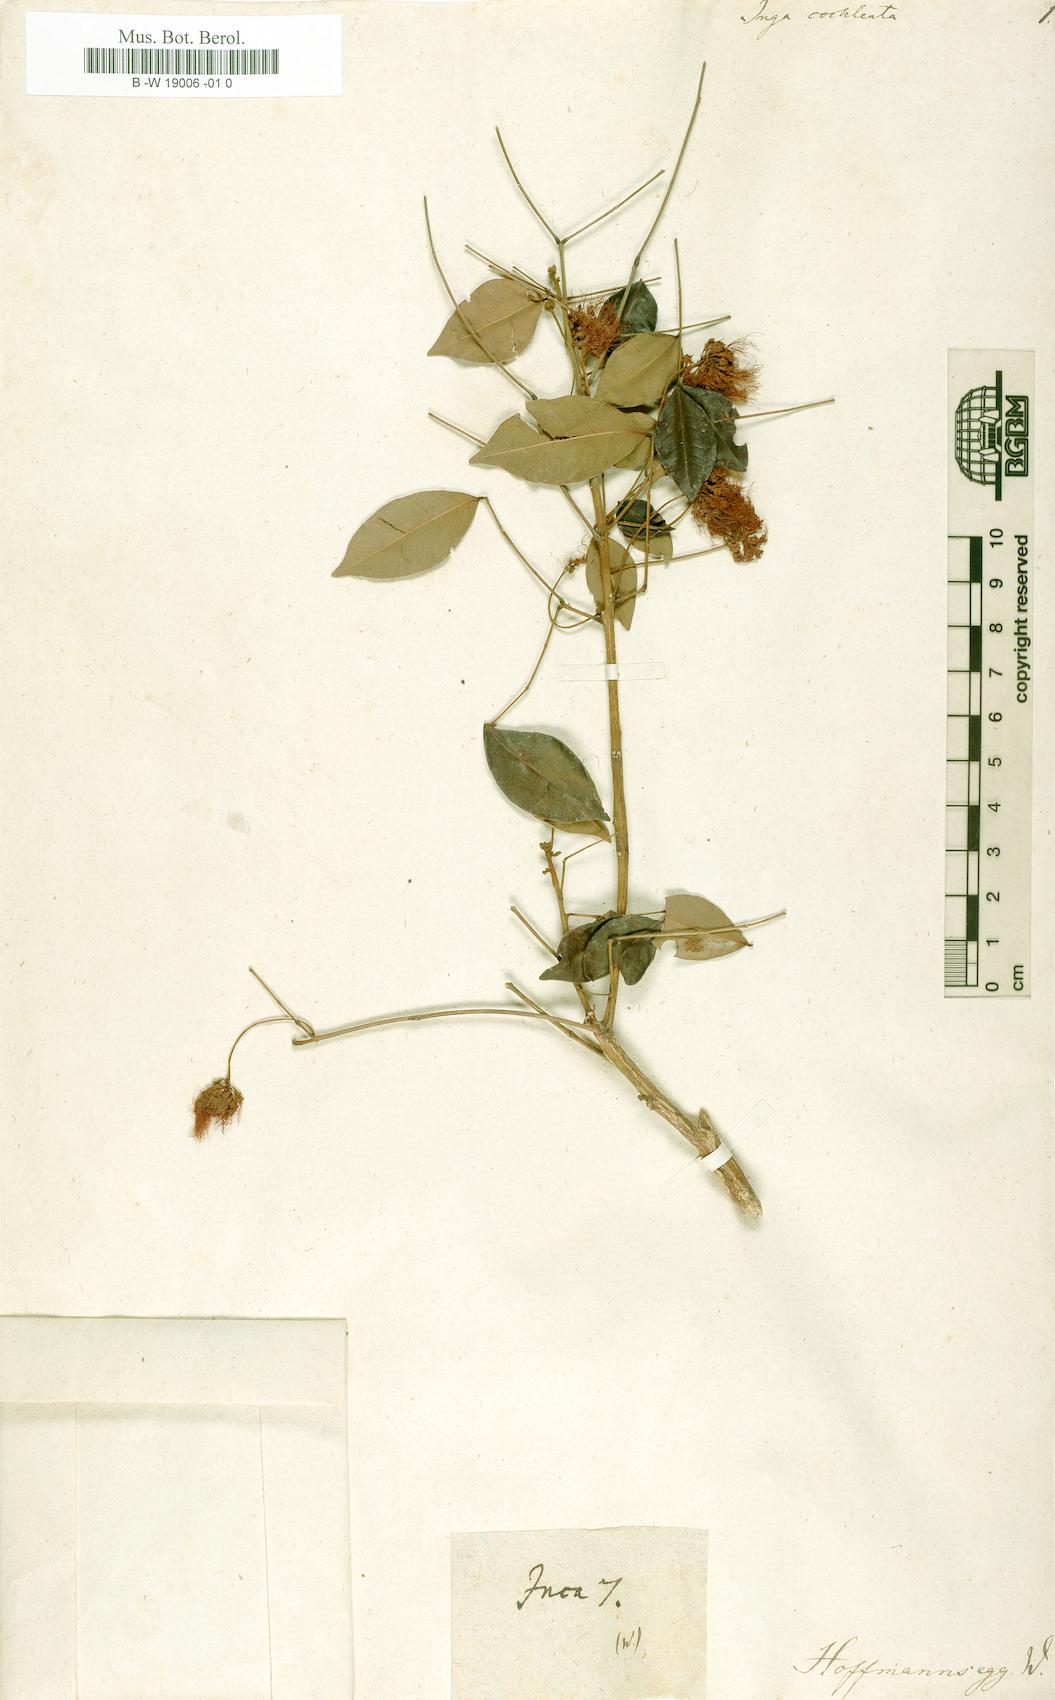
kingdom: Plantae
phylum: Tracheophyta
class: Magnoliopsida
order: Fabales
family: Fabaceae
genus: Jupunba
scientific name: Jupunba cochleata
